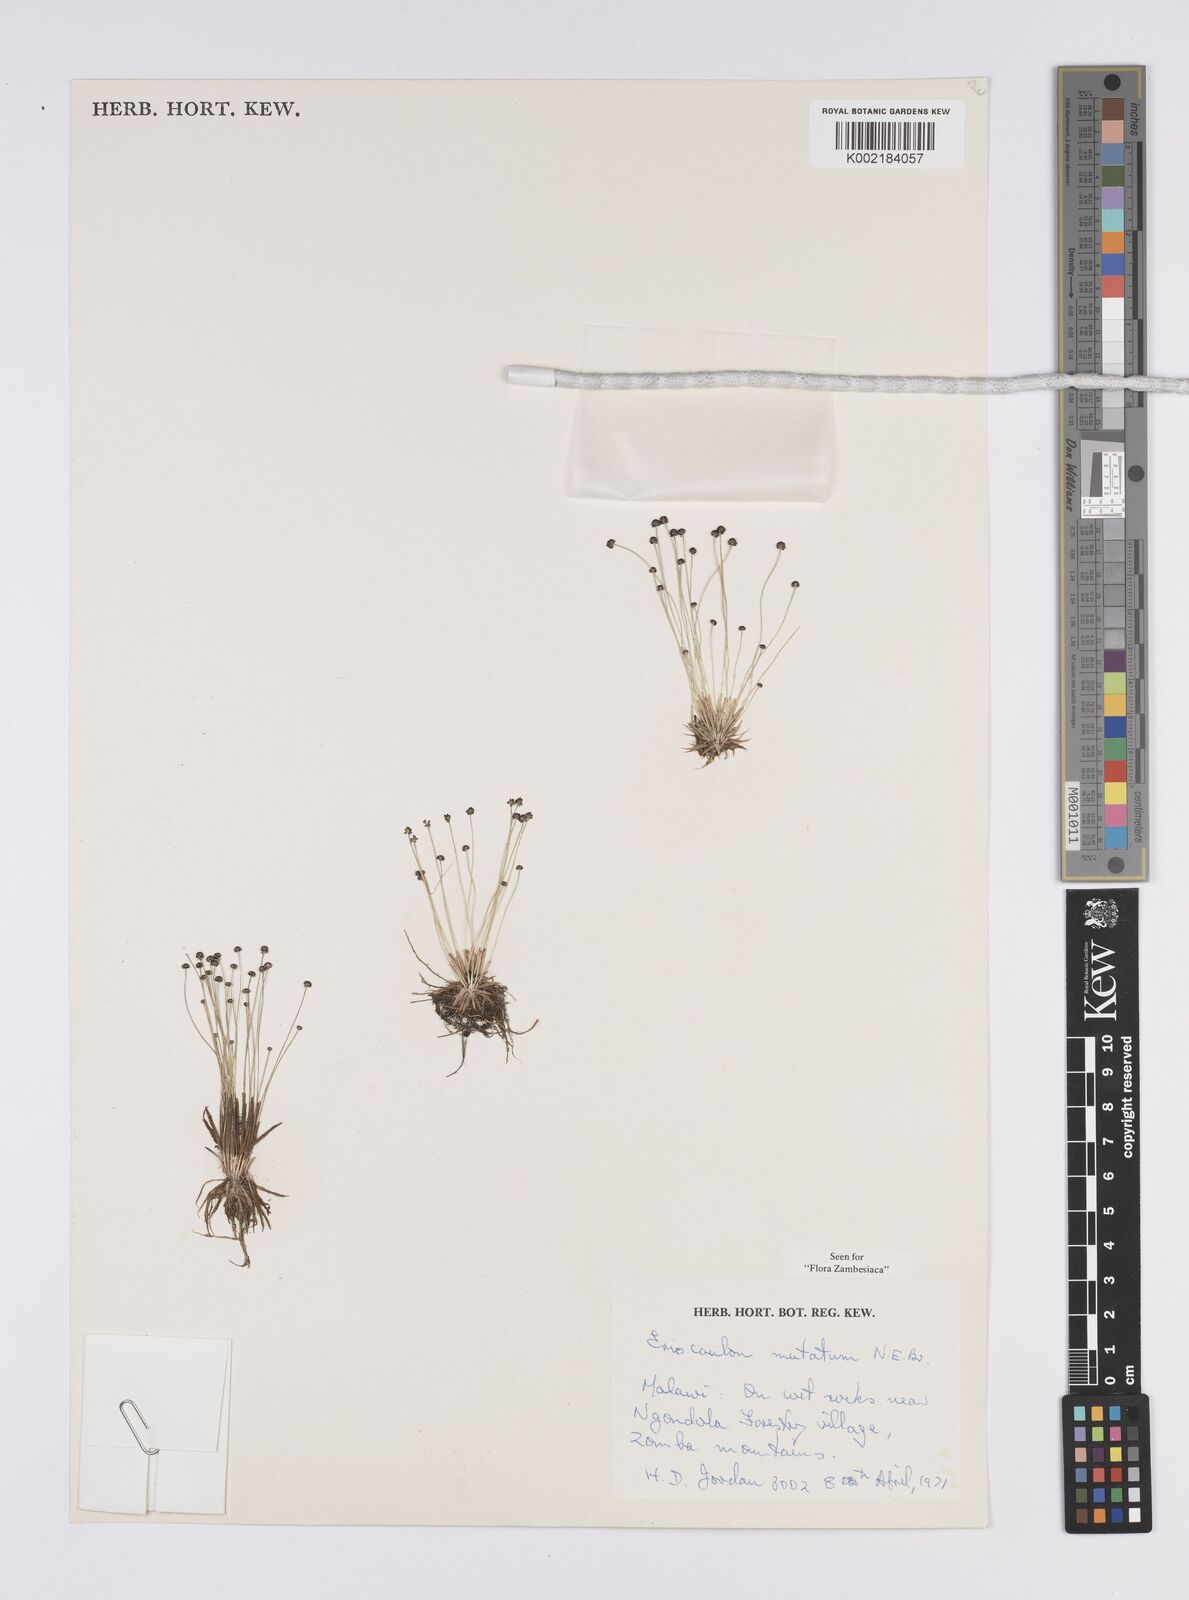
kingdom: Plantae
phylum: Tracheophyta
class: Liliopsida
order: Poales
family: Eriocaulaceae
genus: Eriocaulon
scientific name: Eriocaulon mutatum
